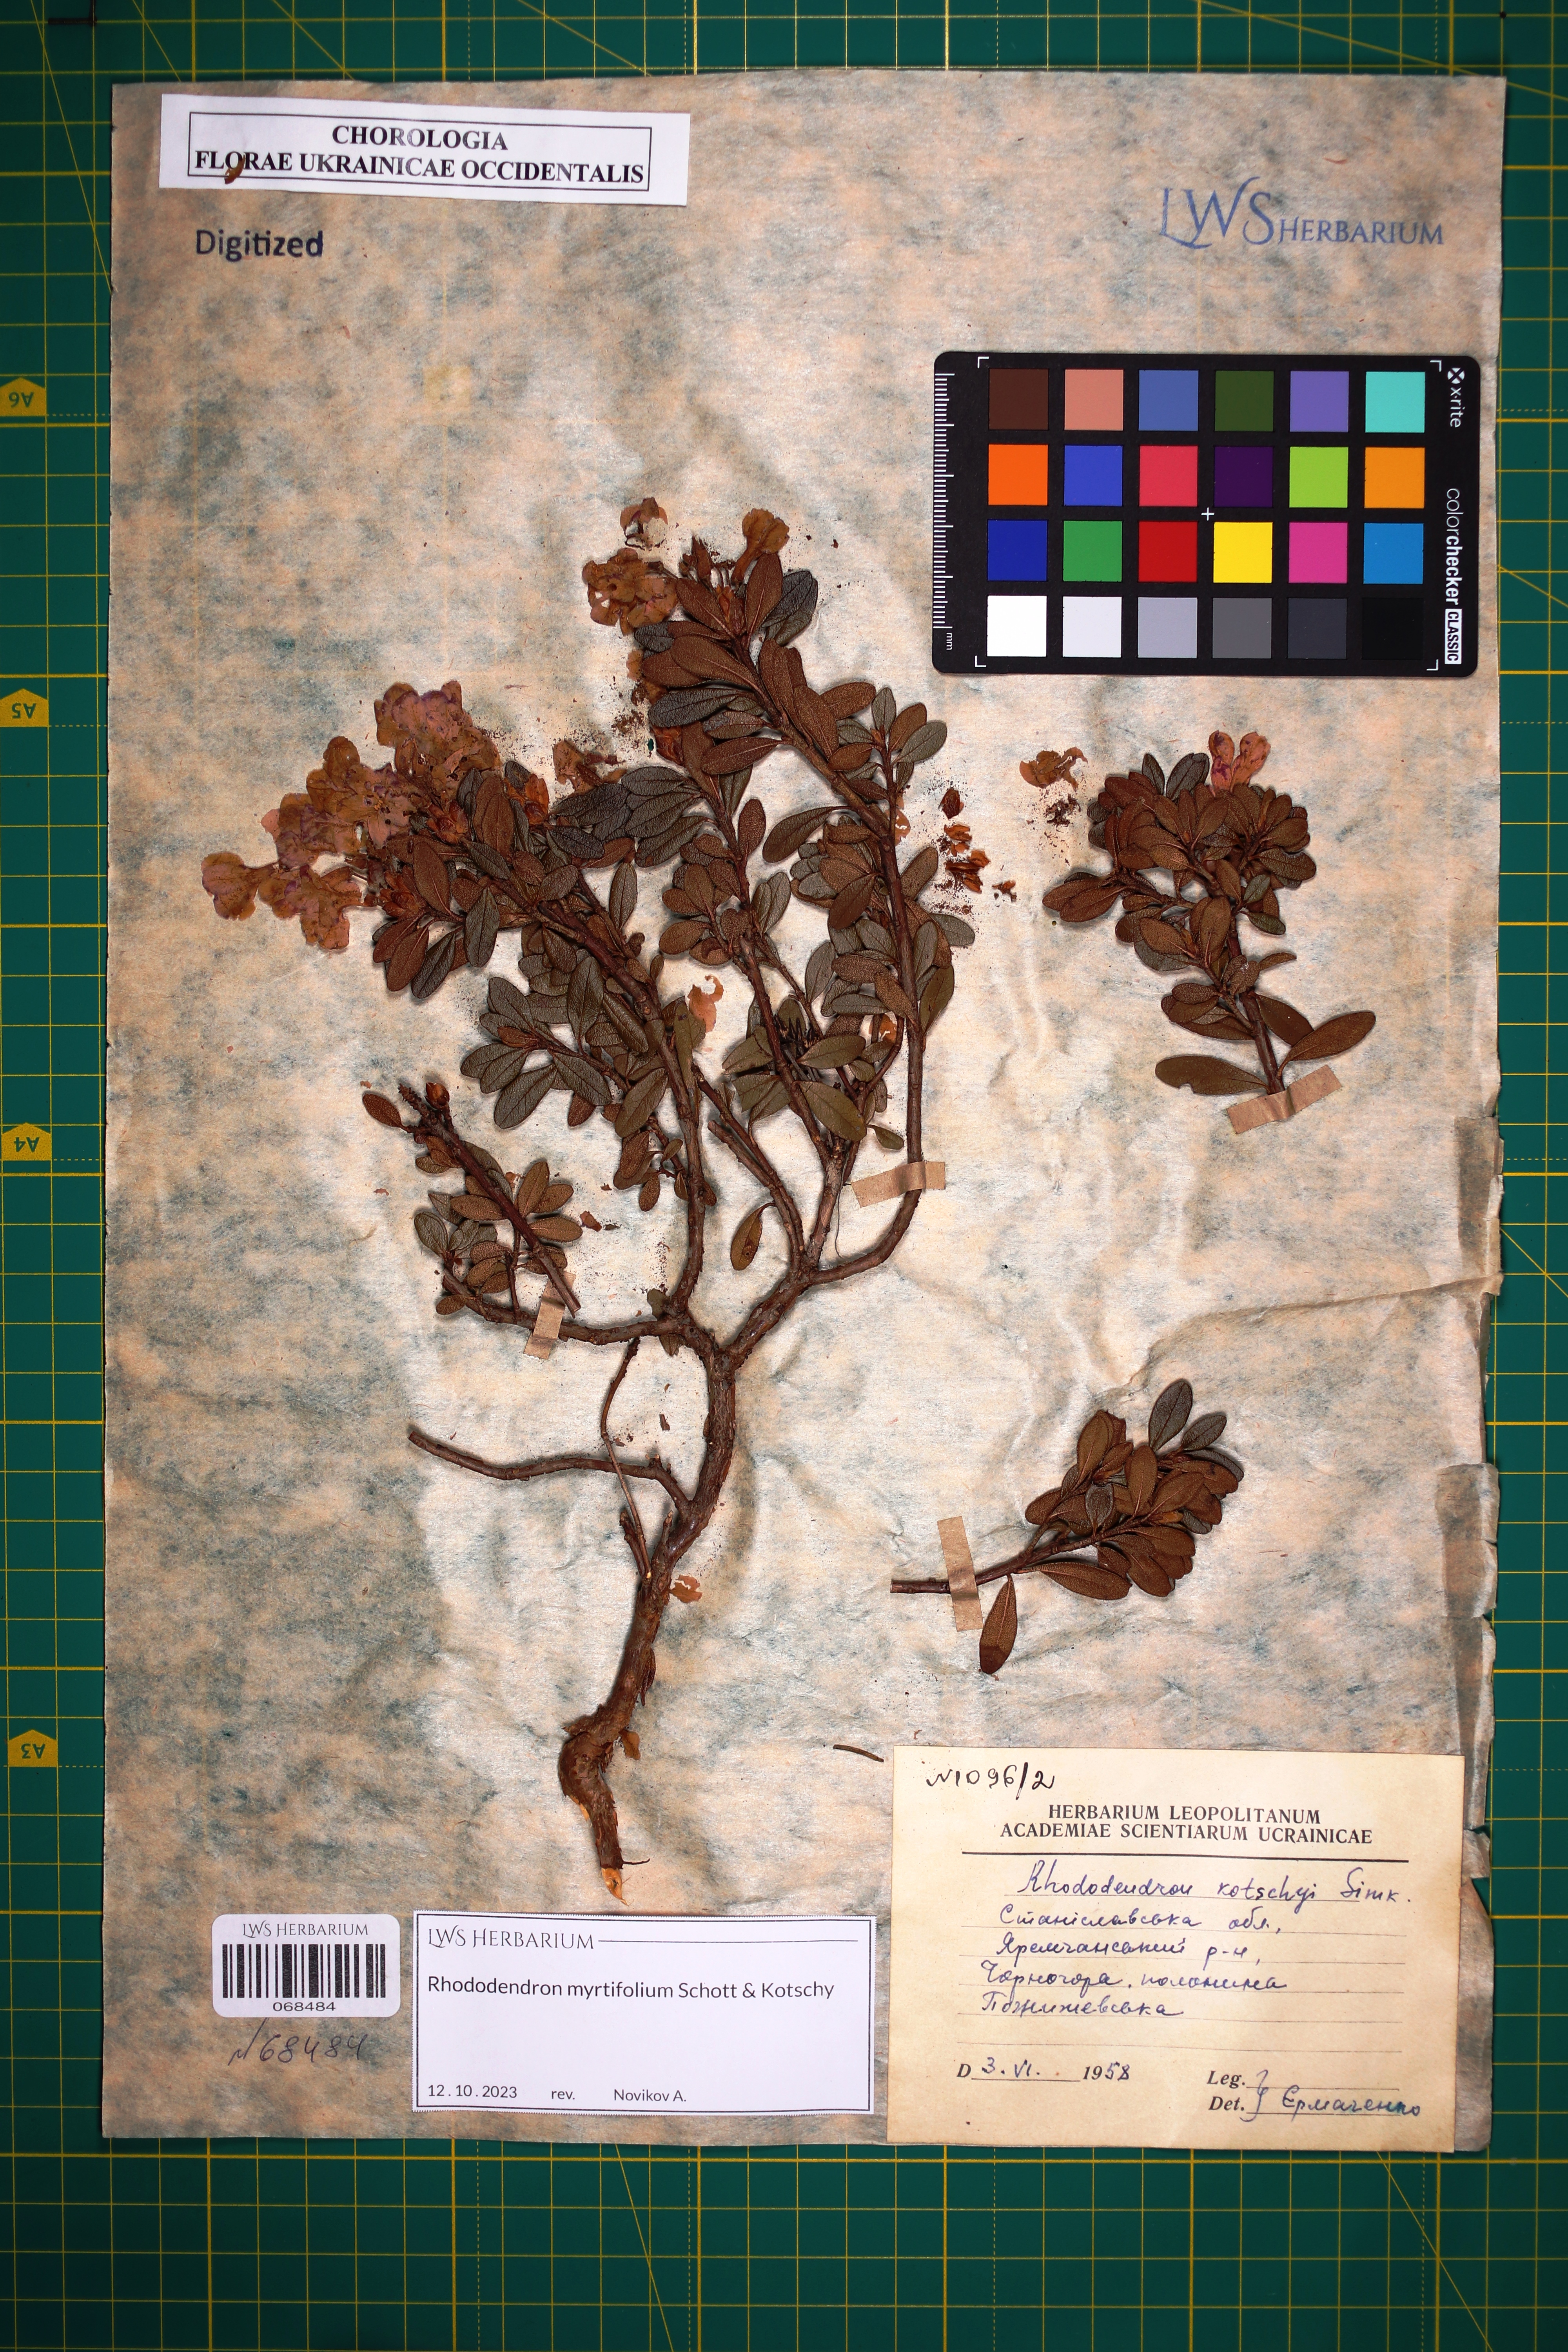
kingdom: Plantae
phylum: Tracheophyta
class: Magnoliopsida
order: Ericales
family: Ericaceae
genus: Rhododendron
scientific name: Rhododendron kotschyi
